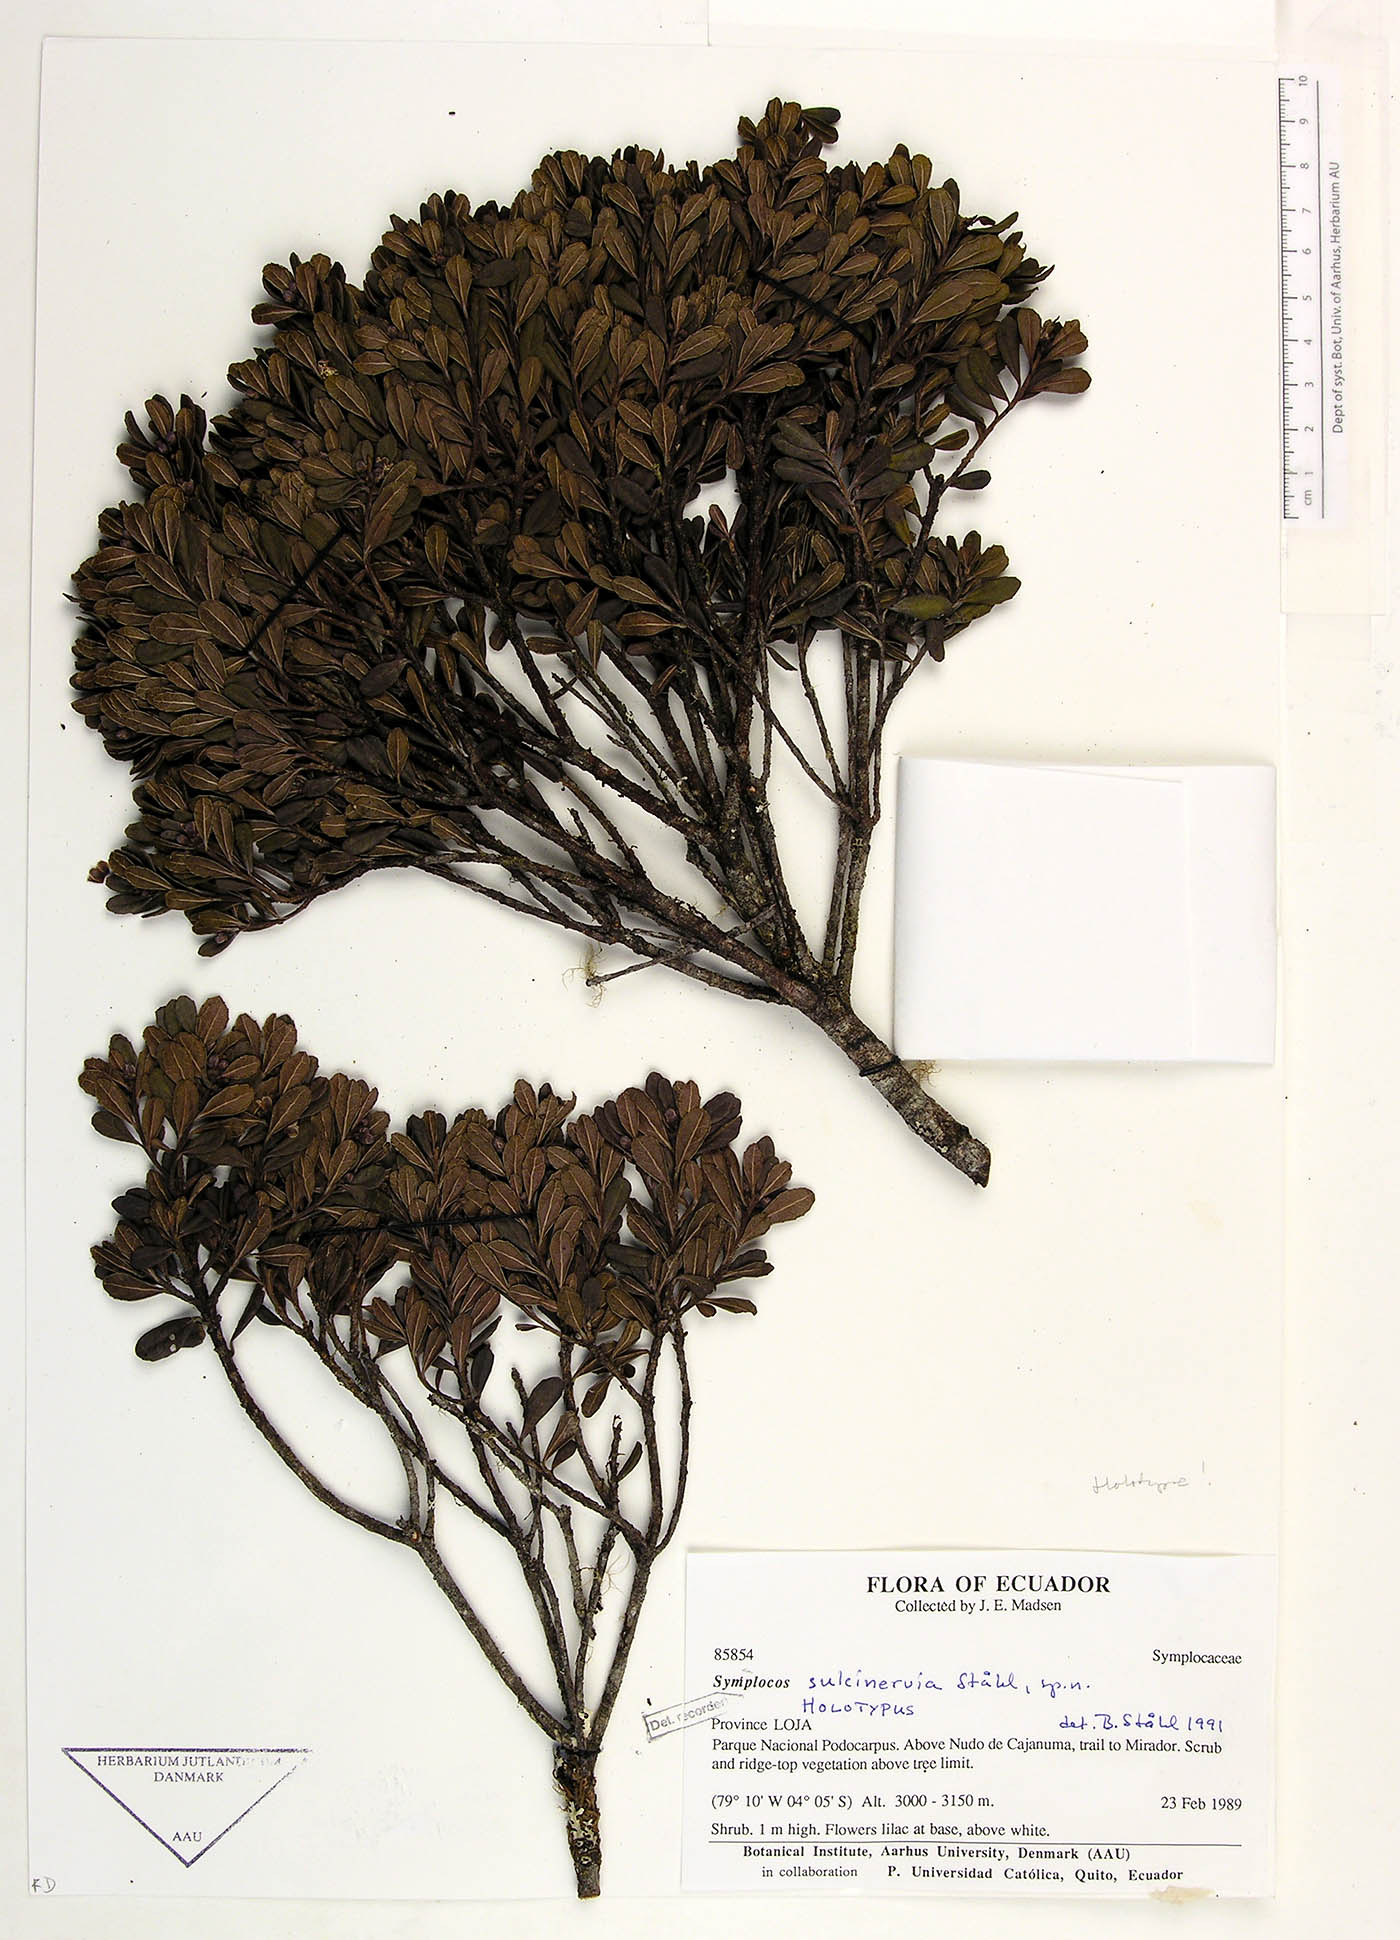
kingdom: Plantae
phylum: Tracheophyta
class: Magnoliopsida
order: Ericales
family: Symplocaceae
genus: Symplocos
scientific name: Symplocos sulcinervia
